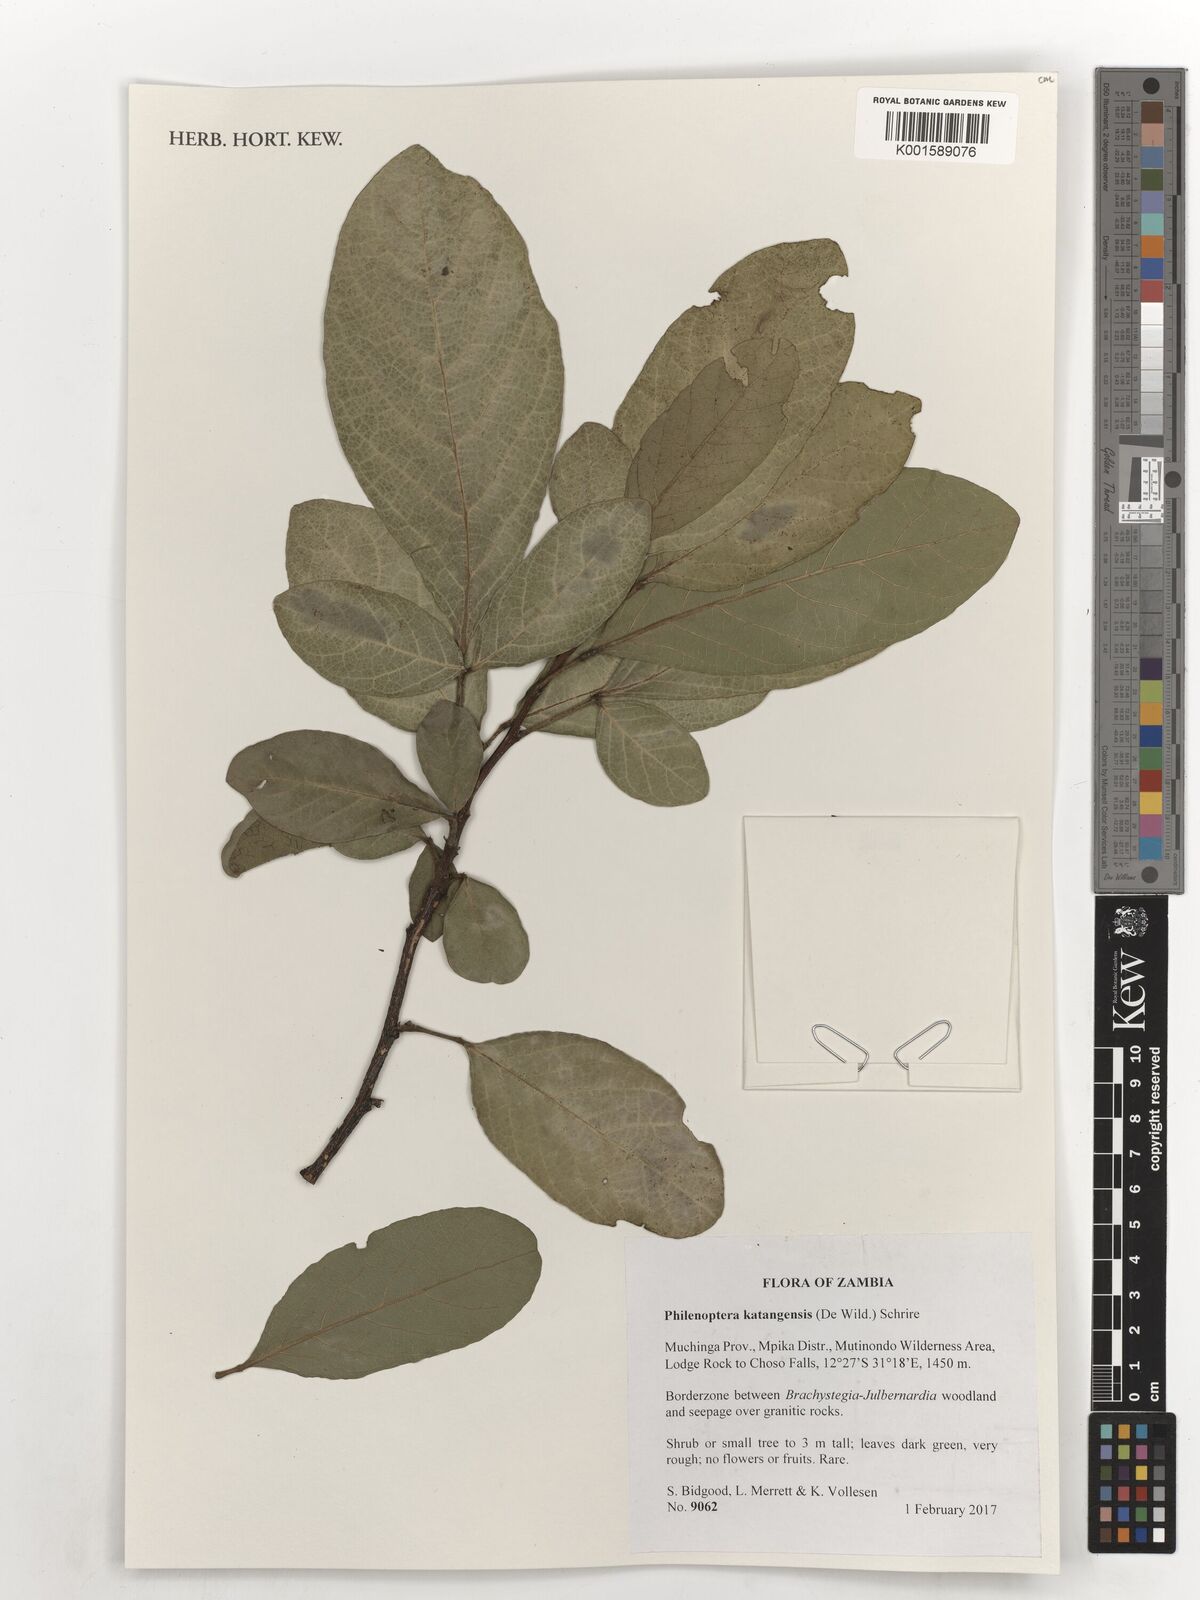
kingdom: Plantae
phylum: Tracheophyta
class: Magnoliopsida
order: Fabales
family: Fabaceae
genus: Philenoptera
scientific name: Philenoptera katangensis
